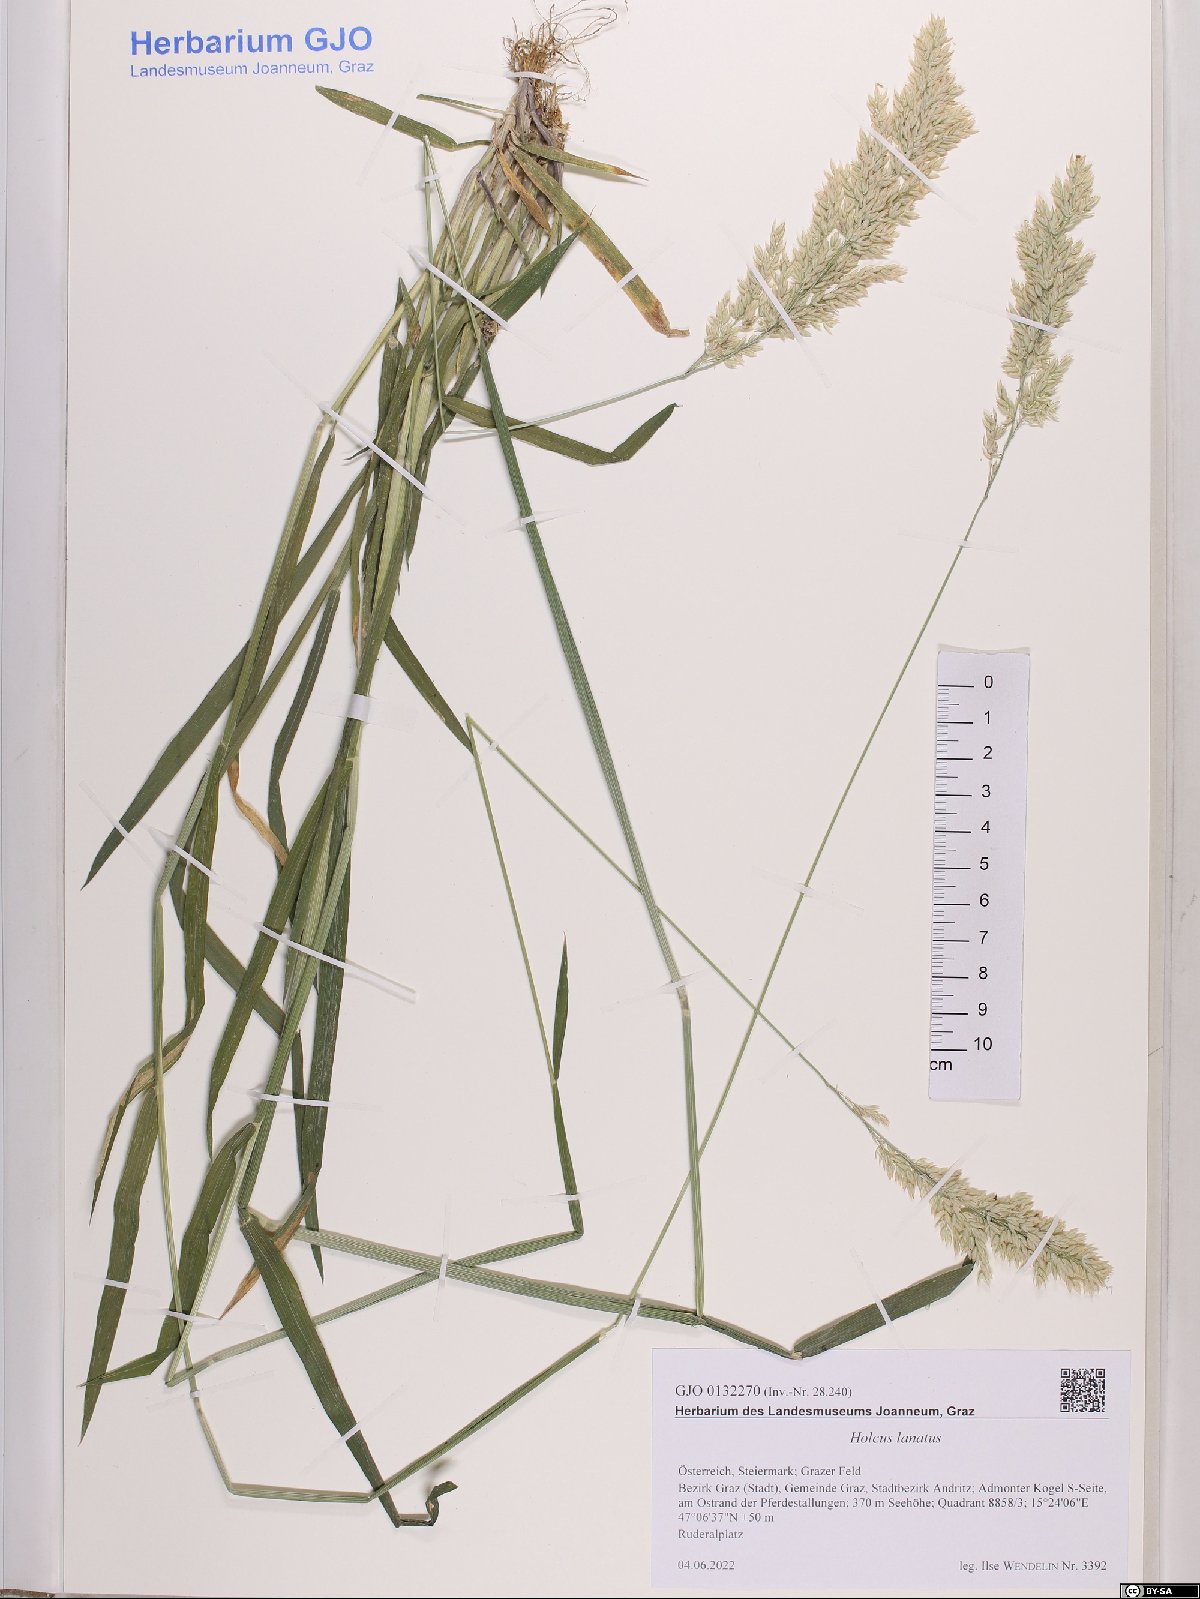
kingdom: Plantae
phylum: Tracheophyta
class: Liliopsida
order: Poales
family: Poaceae
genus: Holcus
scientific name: Holcus lanatus
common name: Yorkshire-fog
